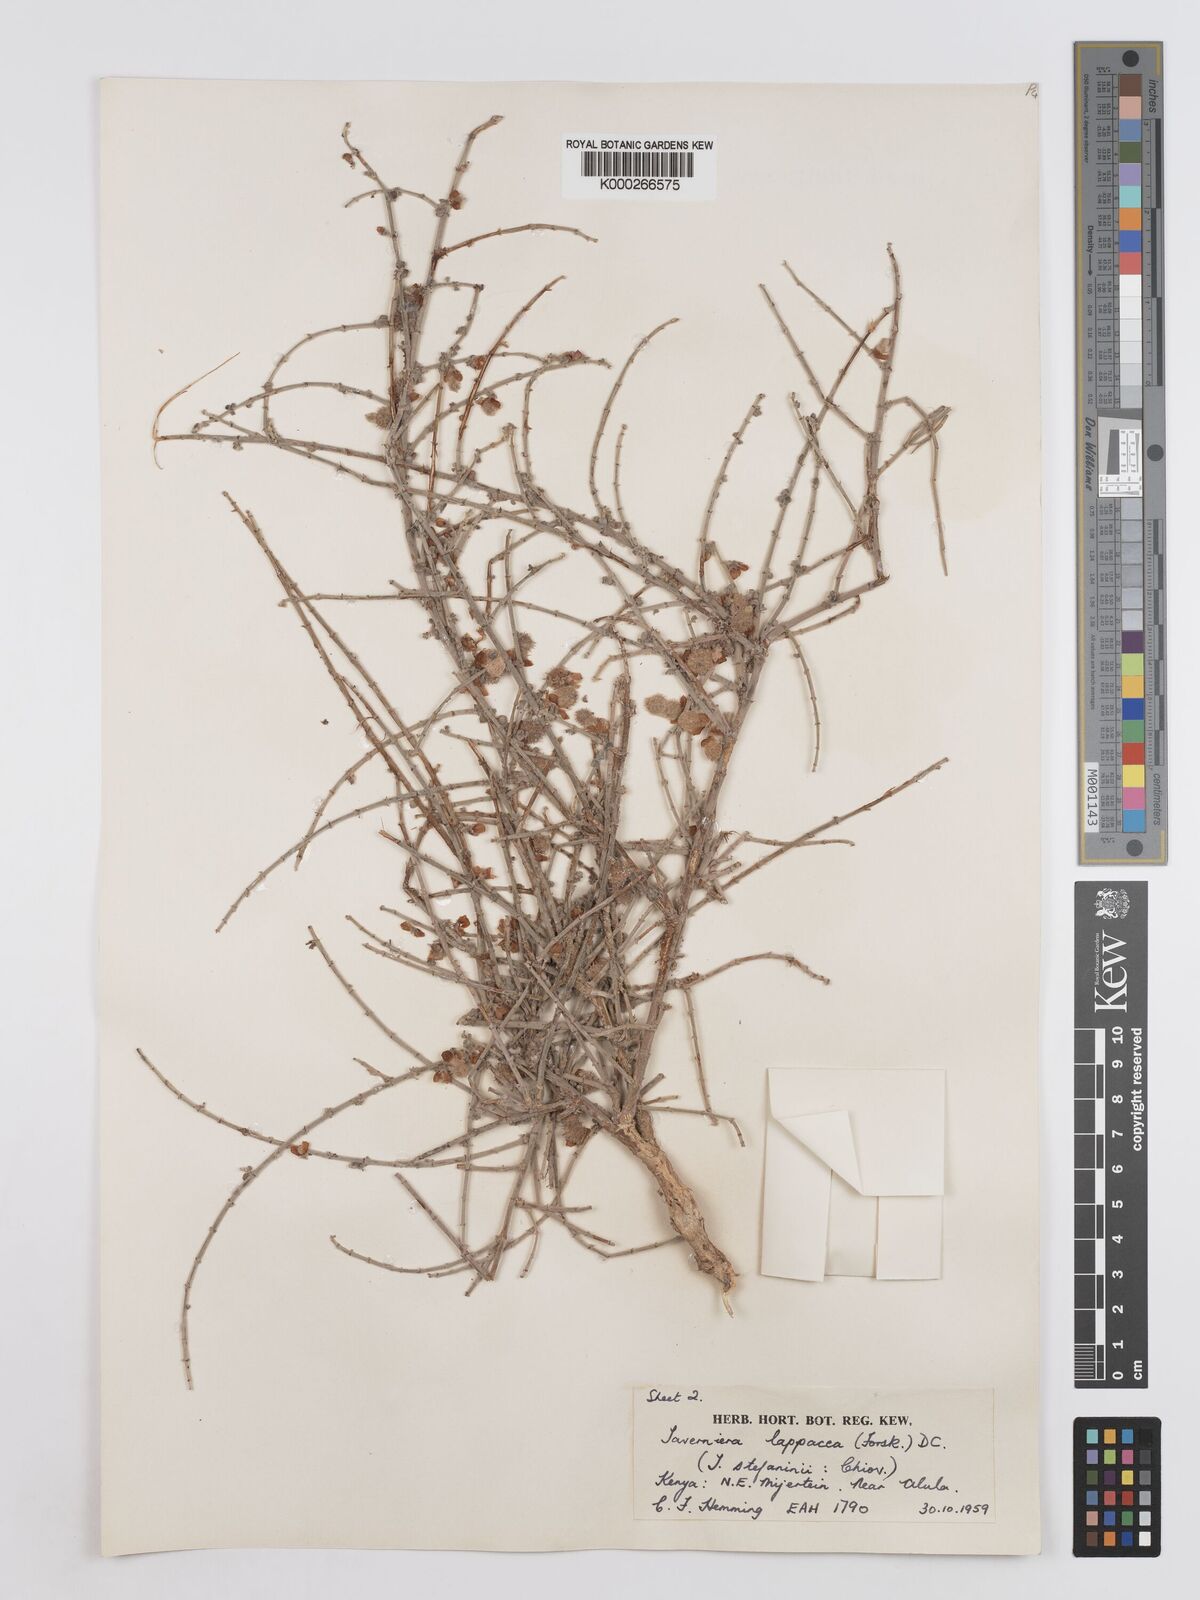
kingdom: Plantae
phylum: Tracheophyta
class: Magnoliopsida
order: Fabales
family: Fabaceae
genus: Taverniera
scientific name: Taverniera lappacea
